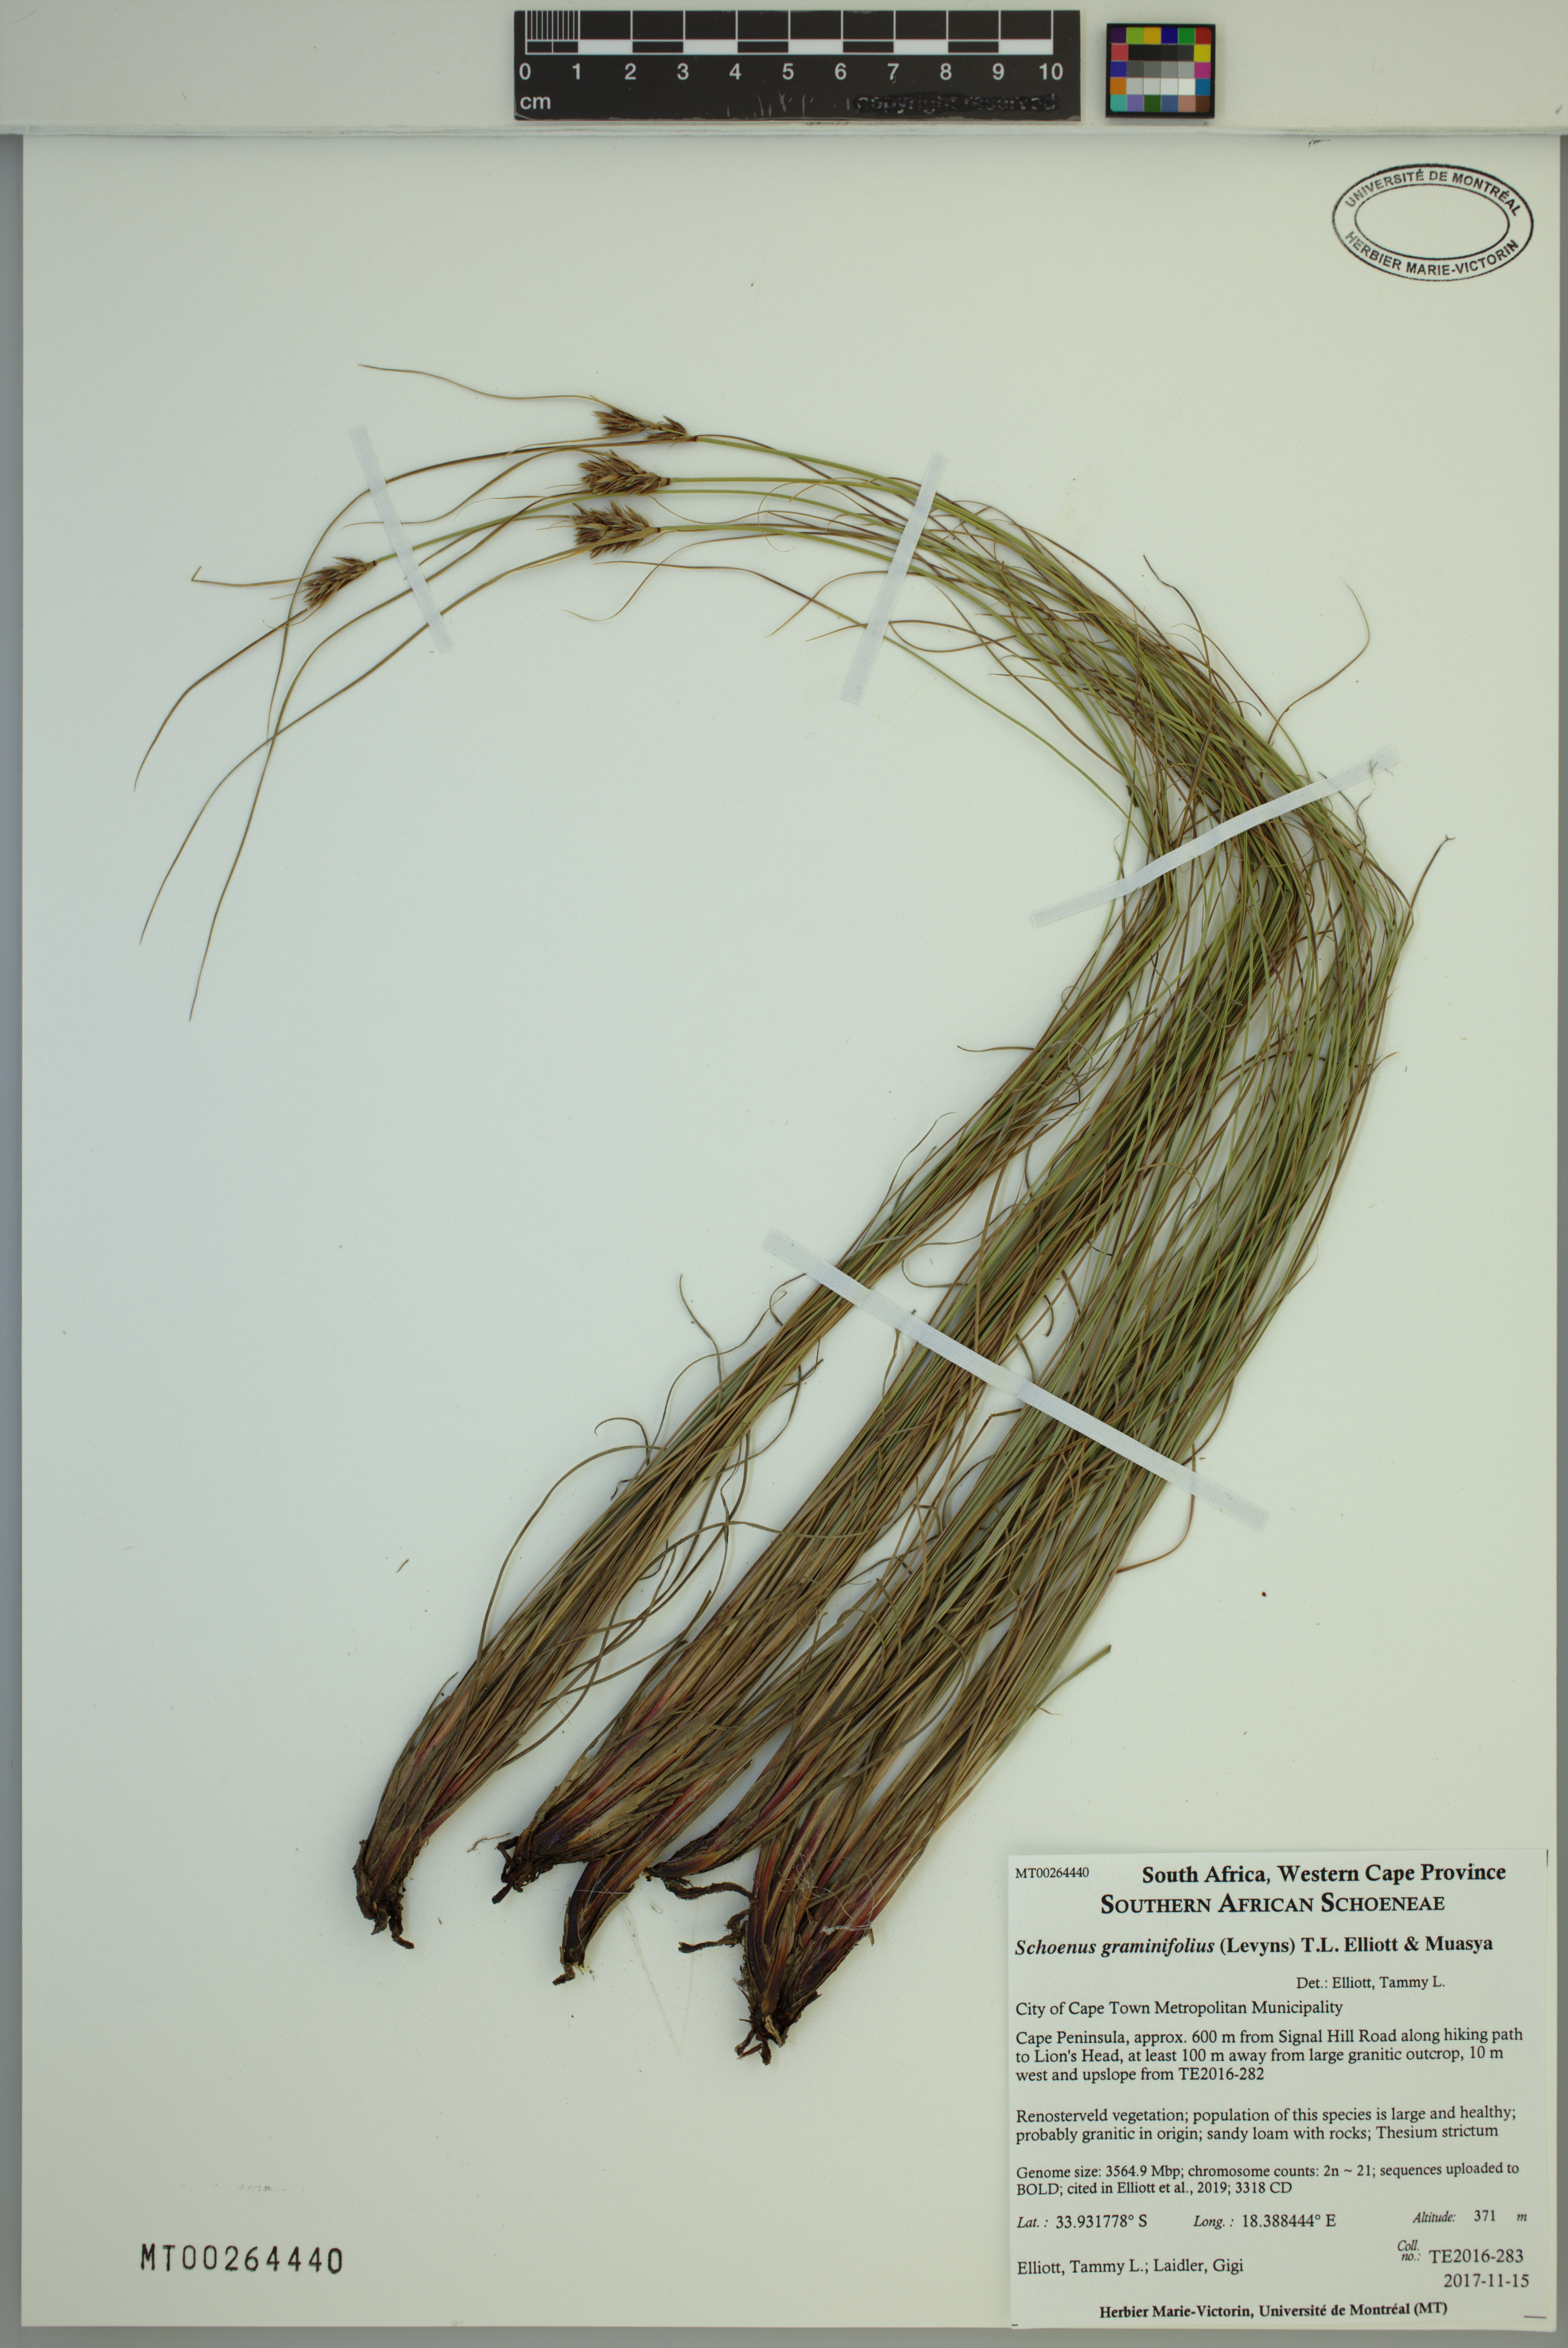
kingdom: Plantae
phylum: Tracheophyta
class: Liliopsida
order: Poales
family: Cyperaceae
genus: Schoenus
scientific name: Schoenus graminifolius
